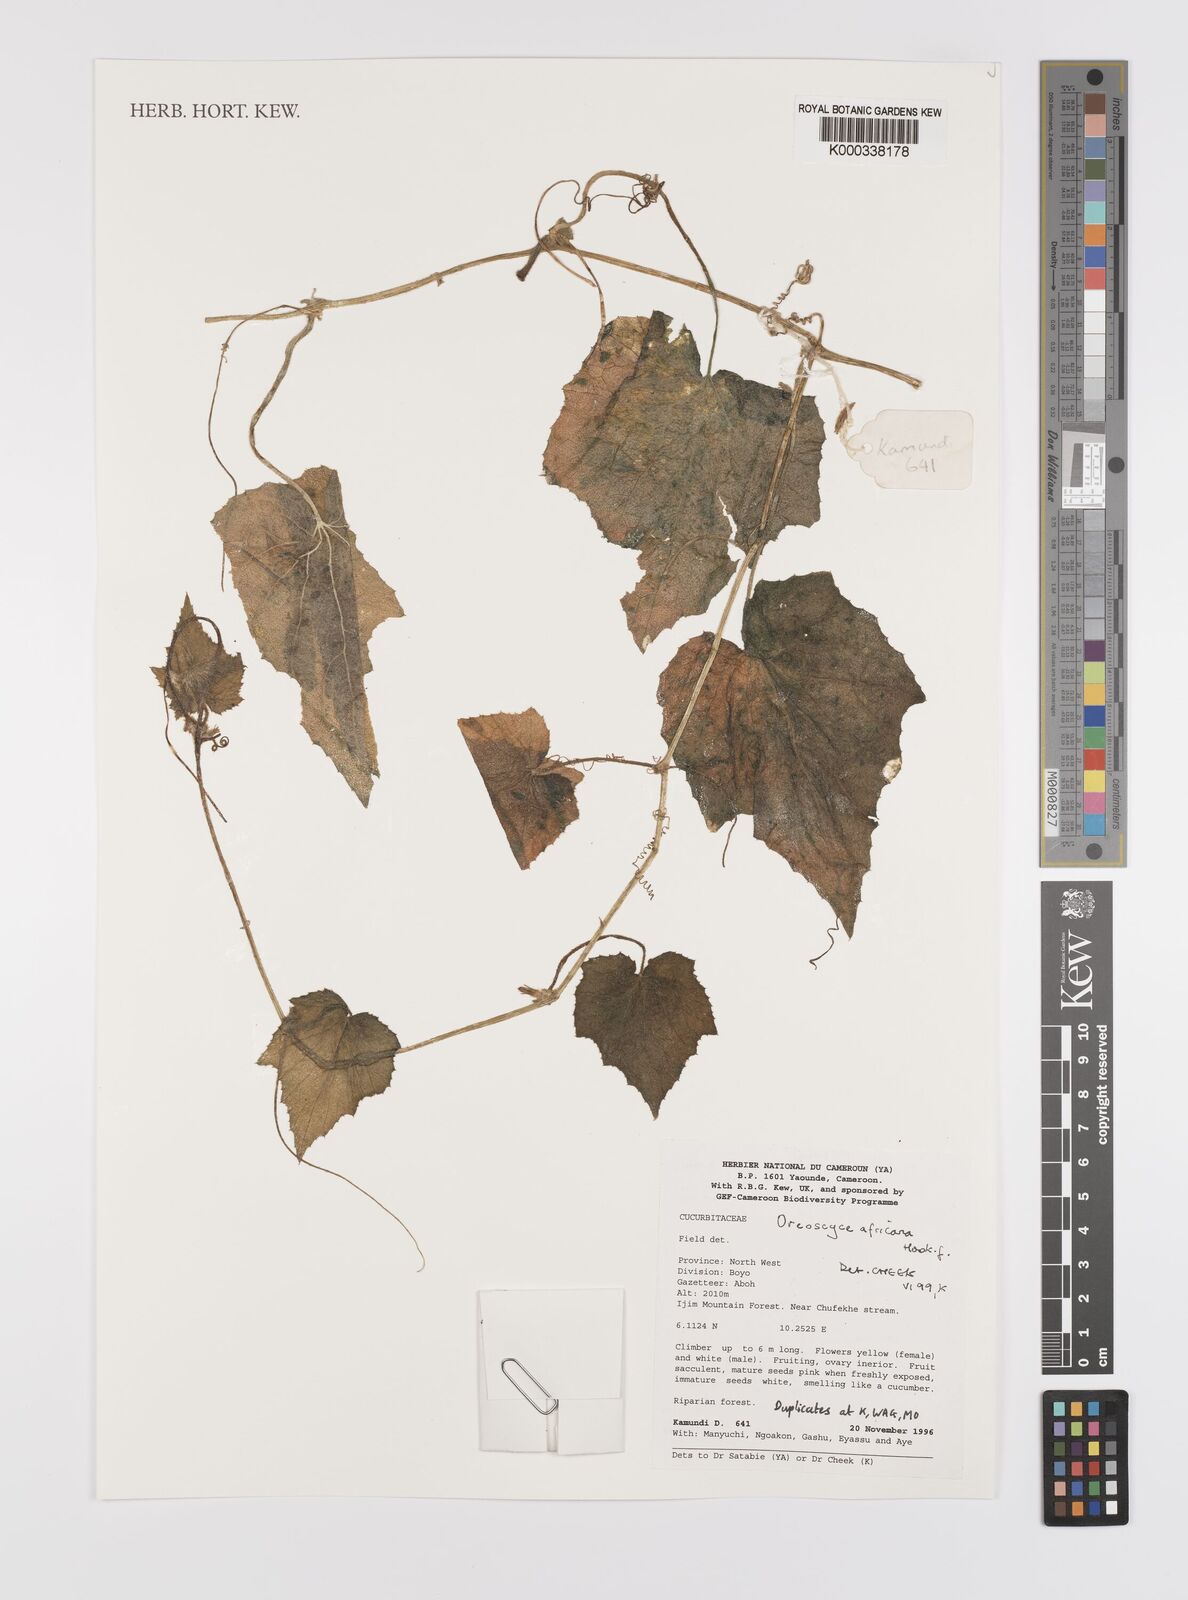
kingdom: Plantae
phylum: Tracheophyta
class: Magnoliopsida
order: Cucurbitales
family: Cucurbitaceae
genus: Cucumis
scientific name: Cucumis oreosyce
